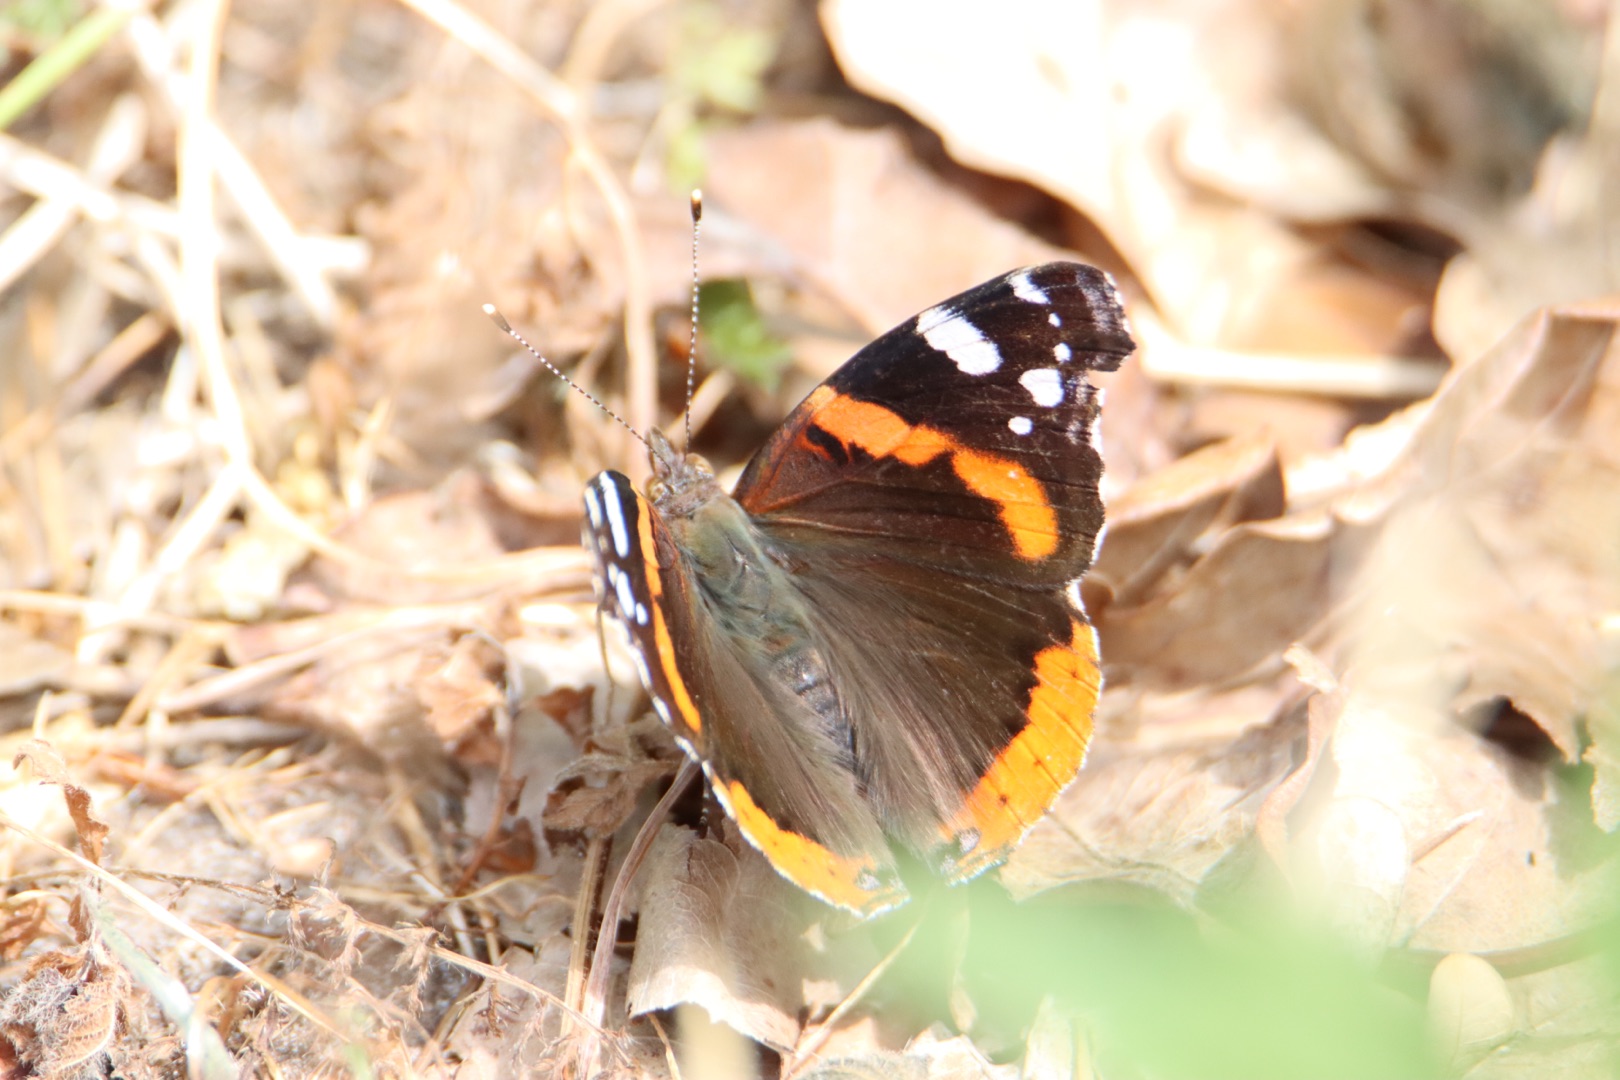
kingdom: Animalia
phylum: Arthropoda
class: Insecta
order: Lepidoptera
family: Nymphalidae
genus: Vanessa
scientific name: Vanessa atalanta
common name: Admiral
